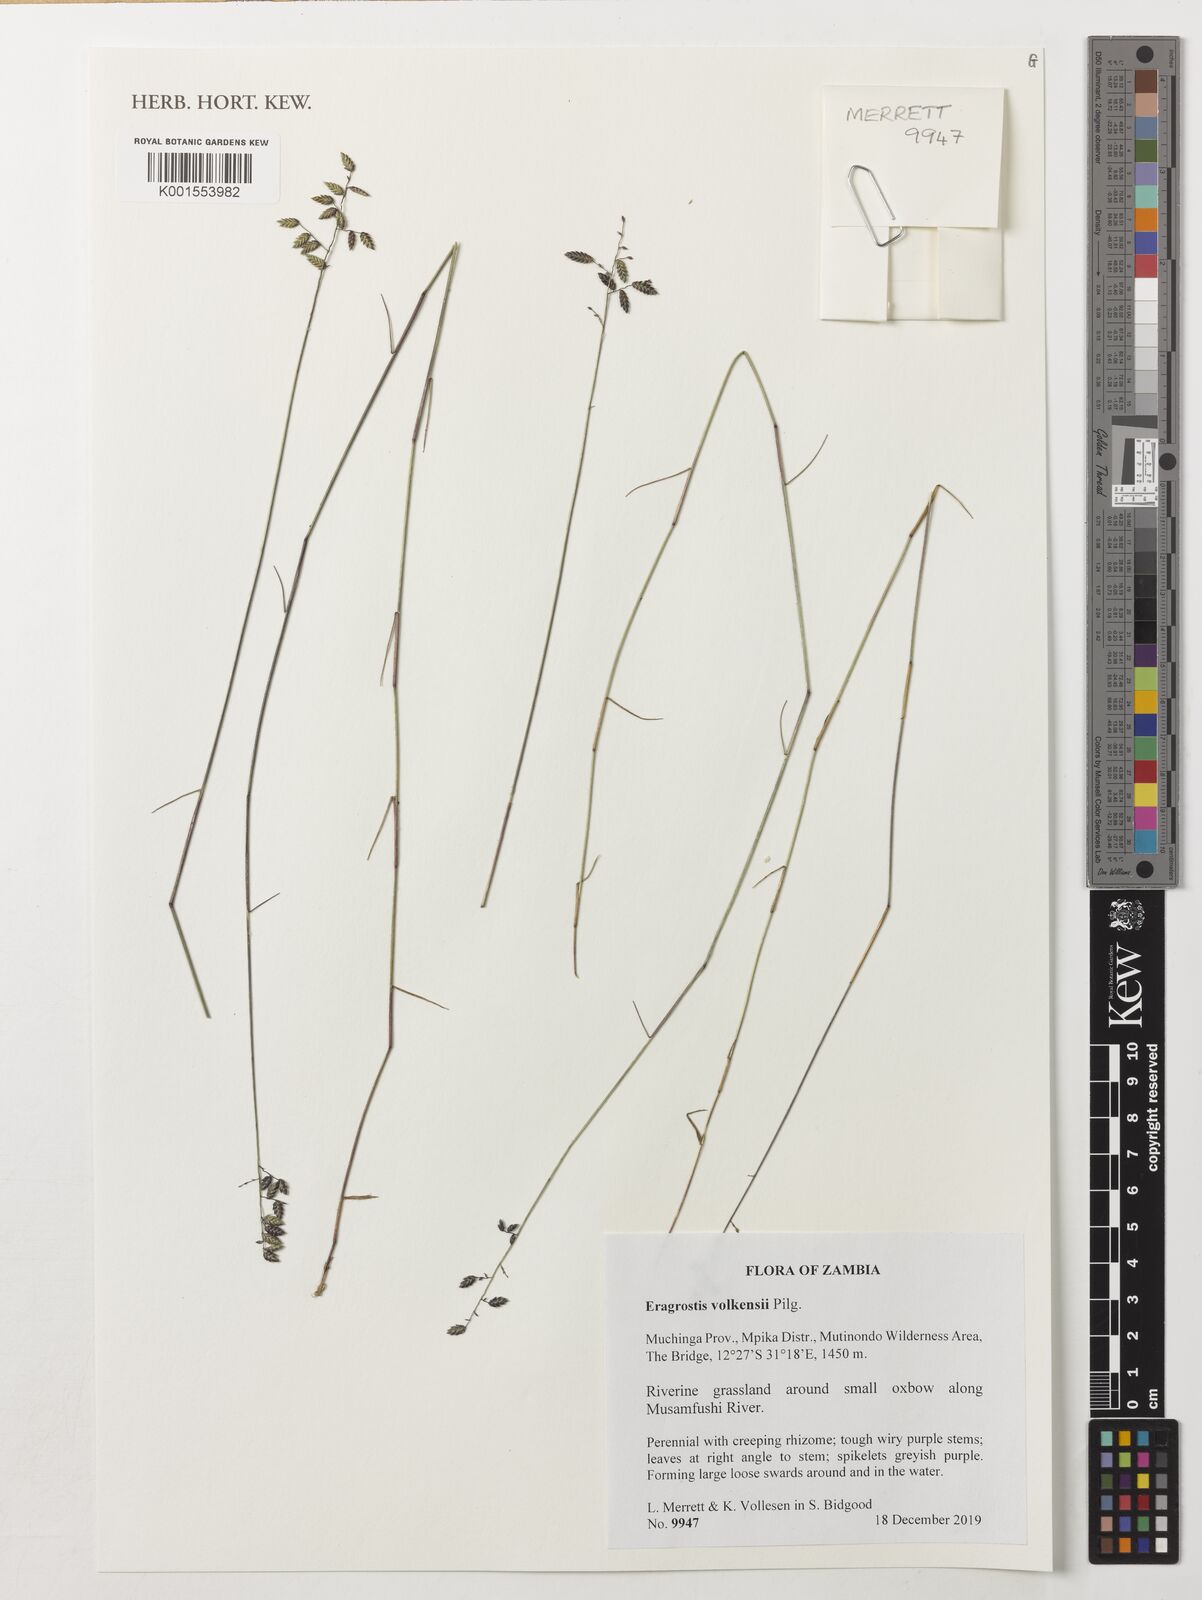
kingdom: Plantae
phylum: Tracheophyta
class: Liliopsida
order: Poales
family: Poaceae
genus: Eragrostis
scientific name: Eragrostis volkensii
